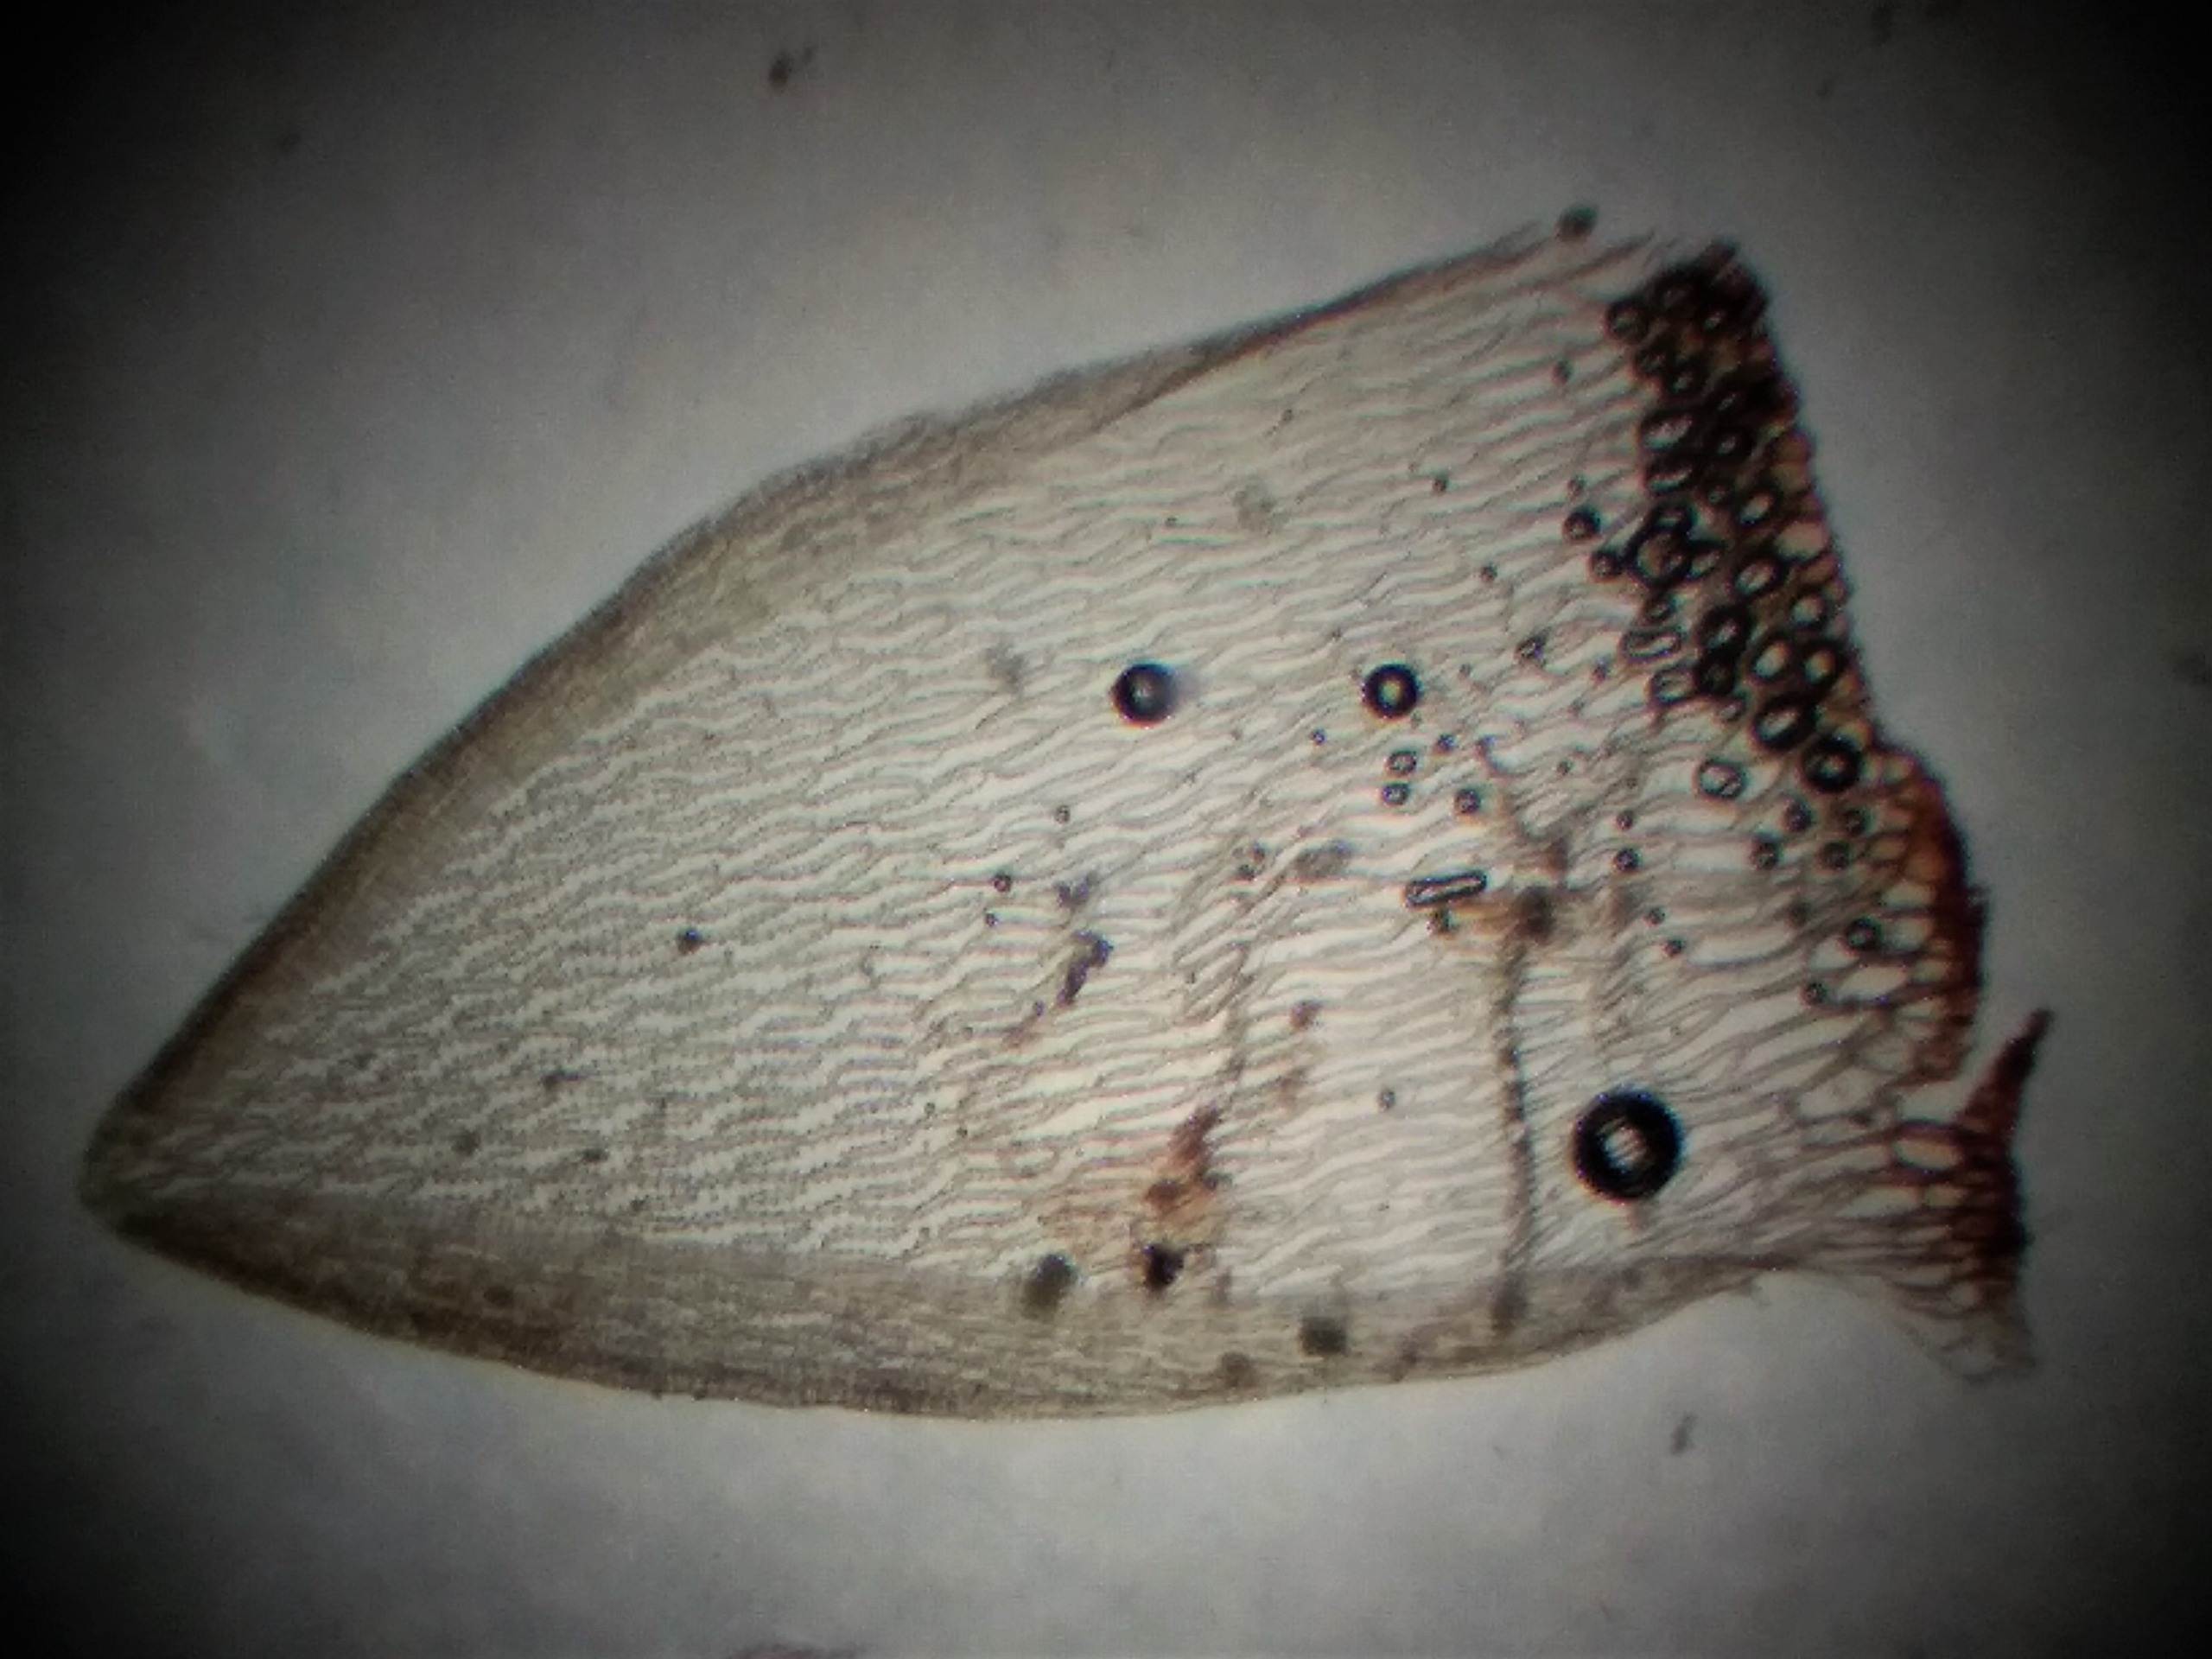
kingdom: Plantae
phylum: Bryophyta
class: Sphagnopsida
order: Sphagnales
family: Sphagnaceae
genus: Sphagnum
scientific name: Sphagnum inundatum
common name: Stump tørvemos
